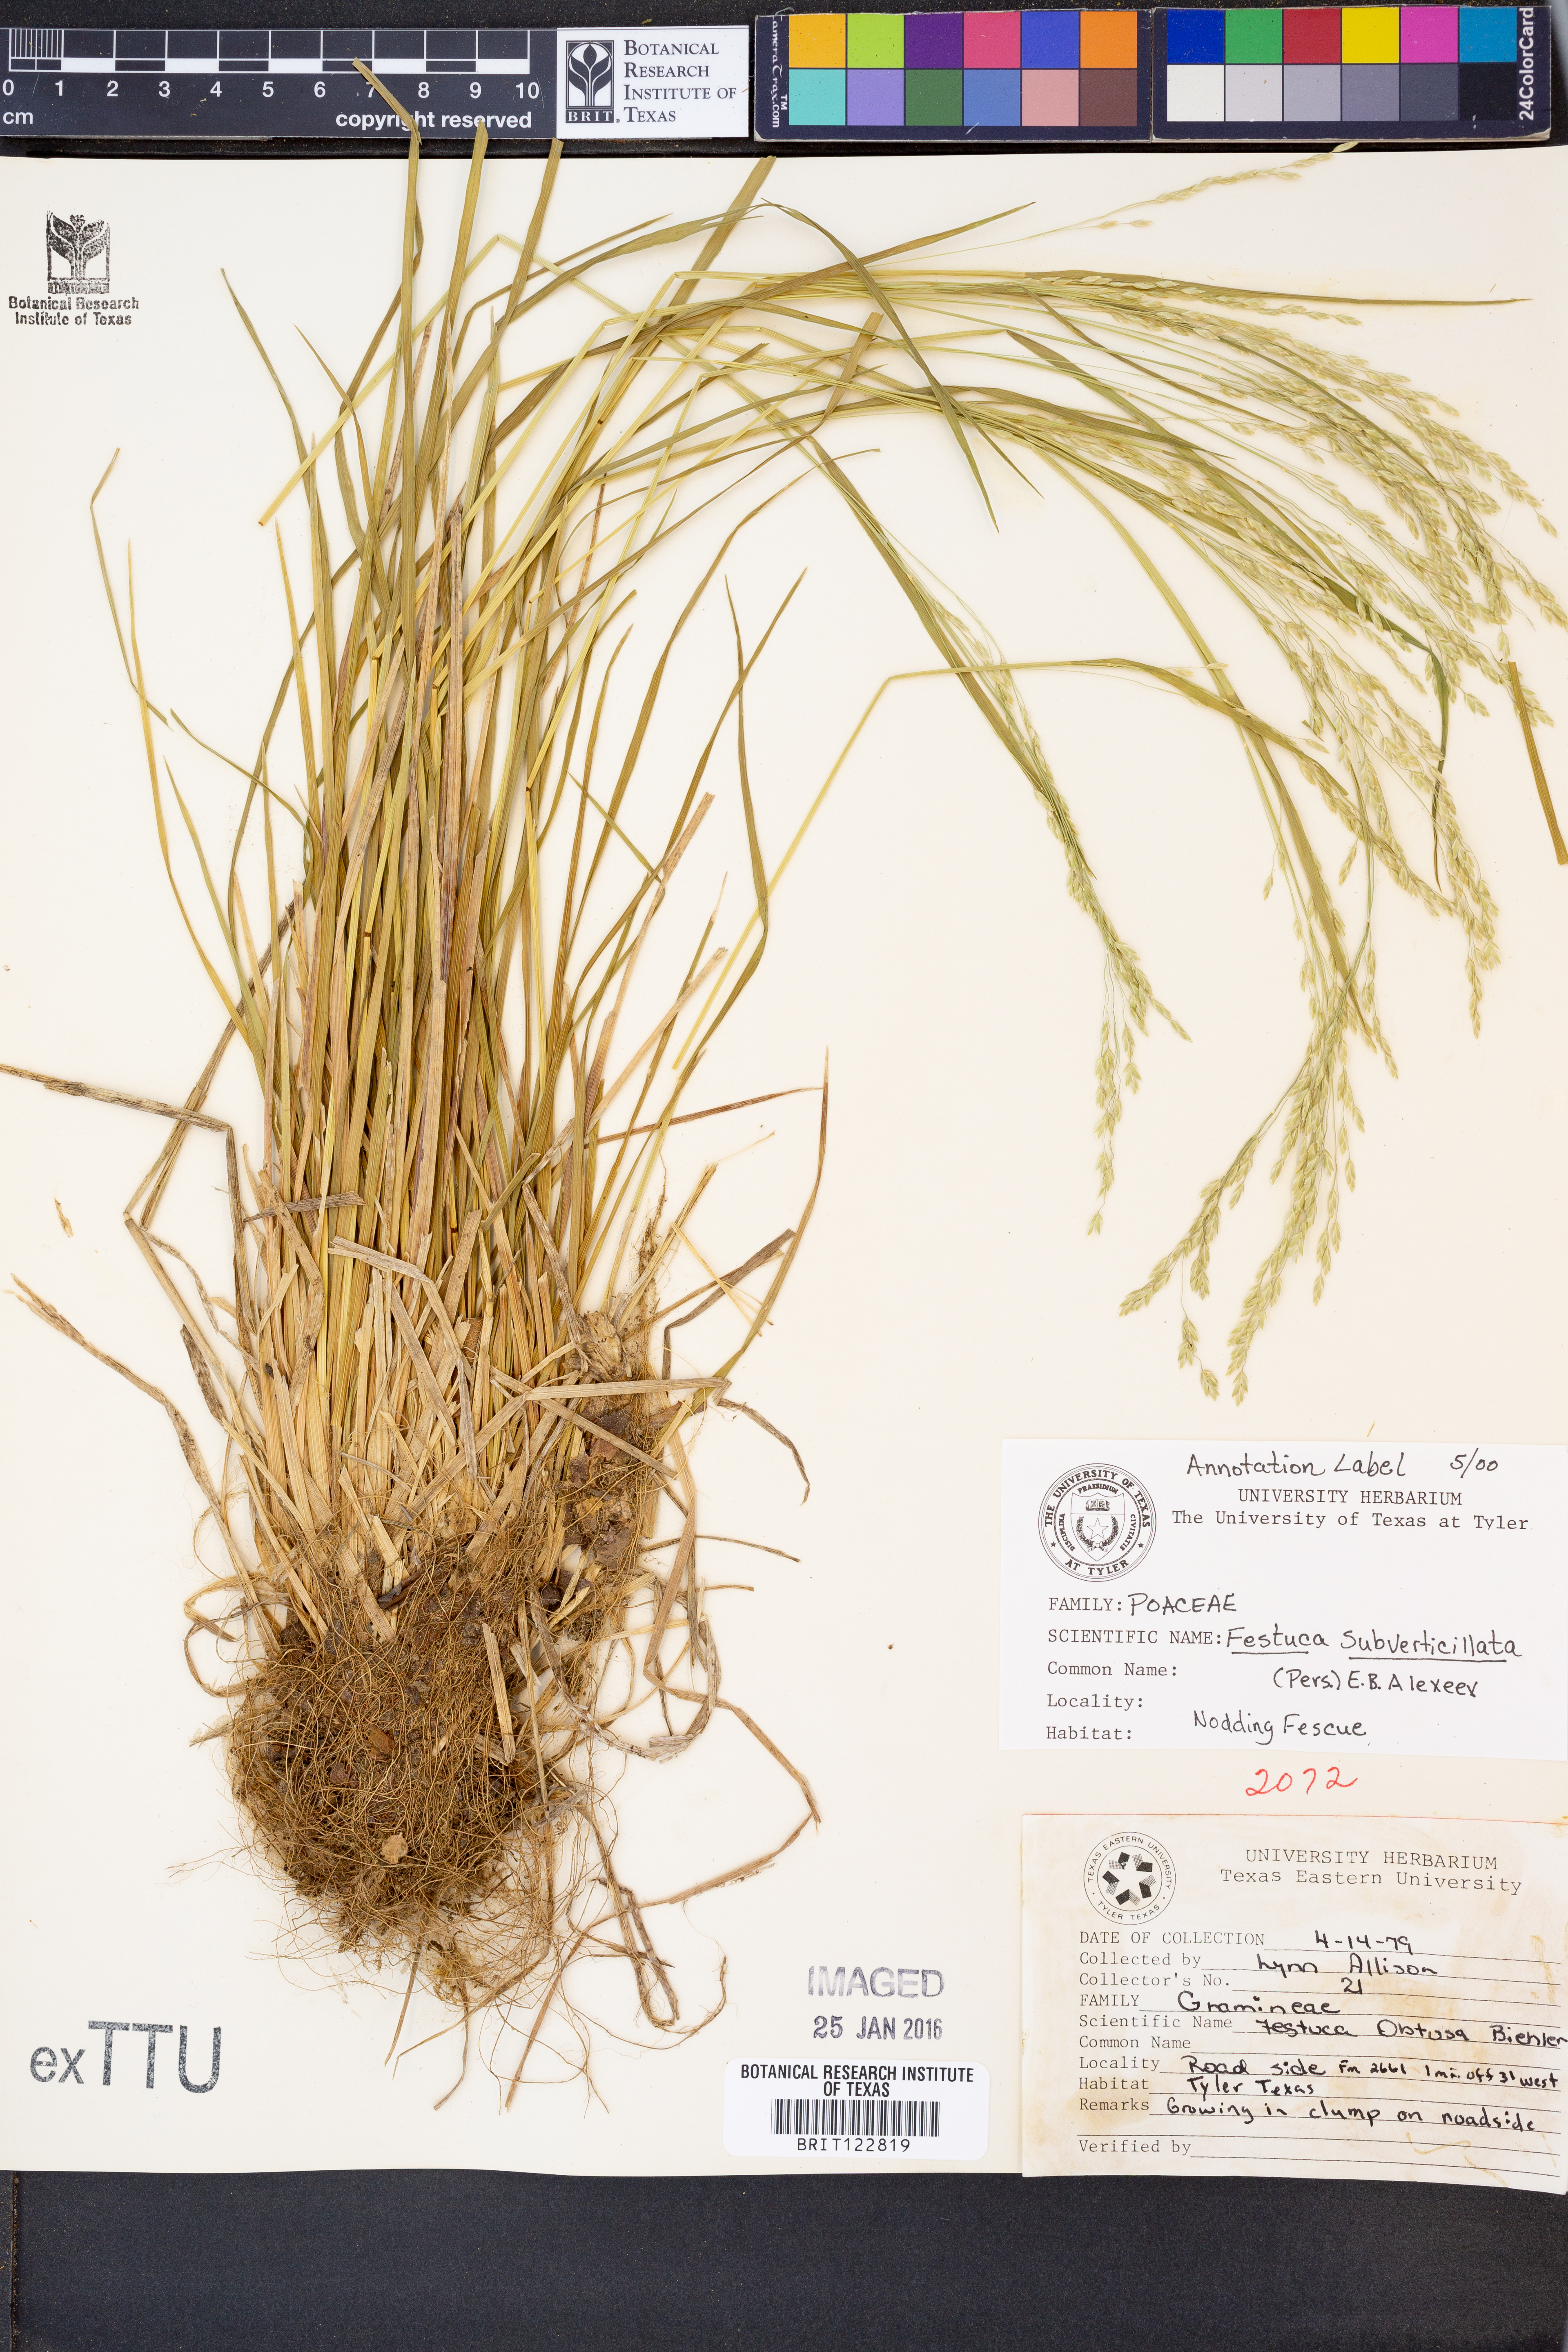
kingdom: Plantae
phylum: Tracheophyta
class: Liliopsida
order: Poales
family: Poaceae
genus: Festuca
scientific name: Festuca subverticillata
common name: Nodding fescue
